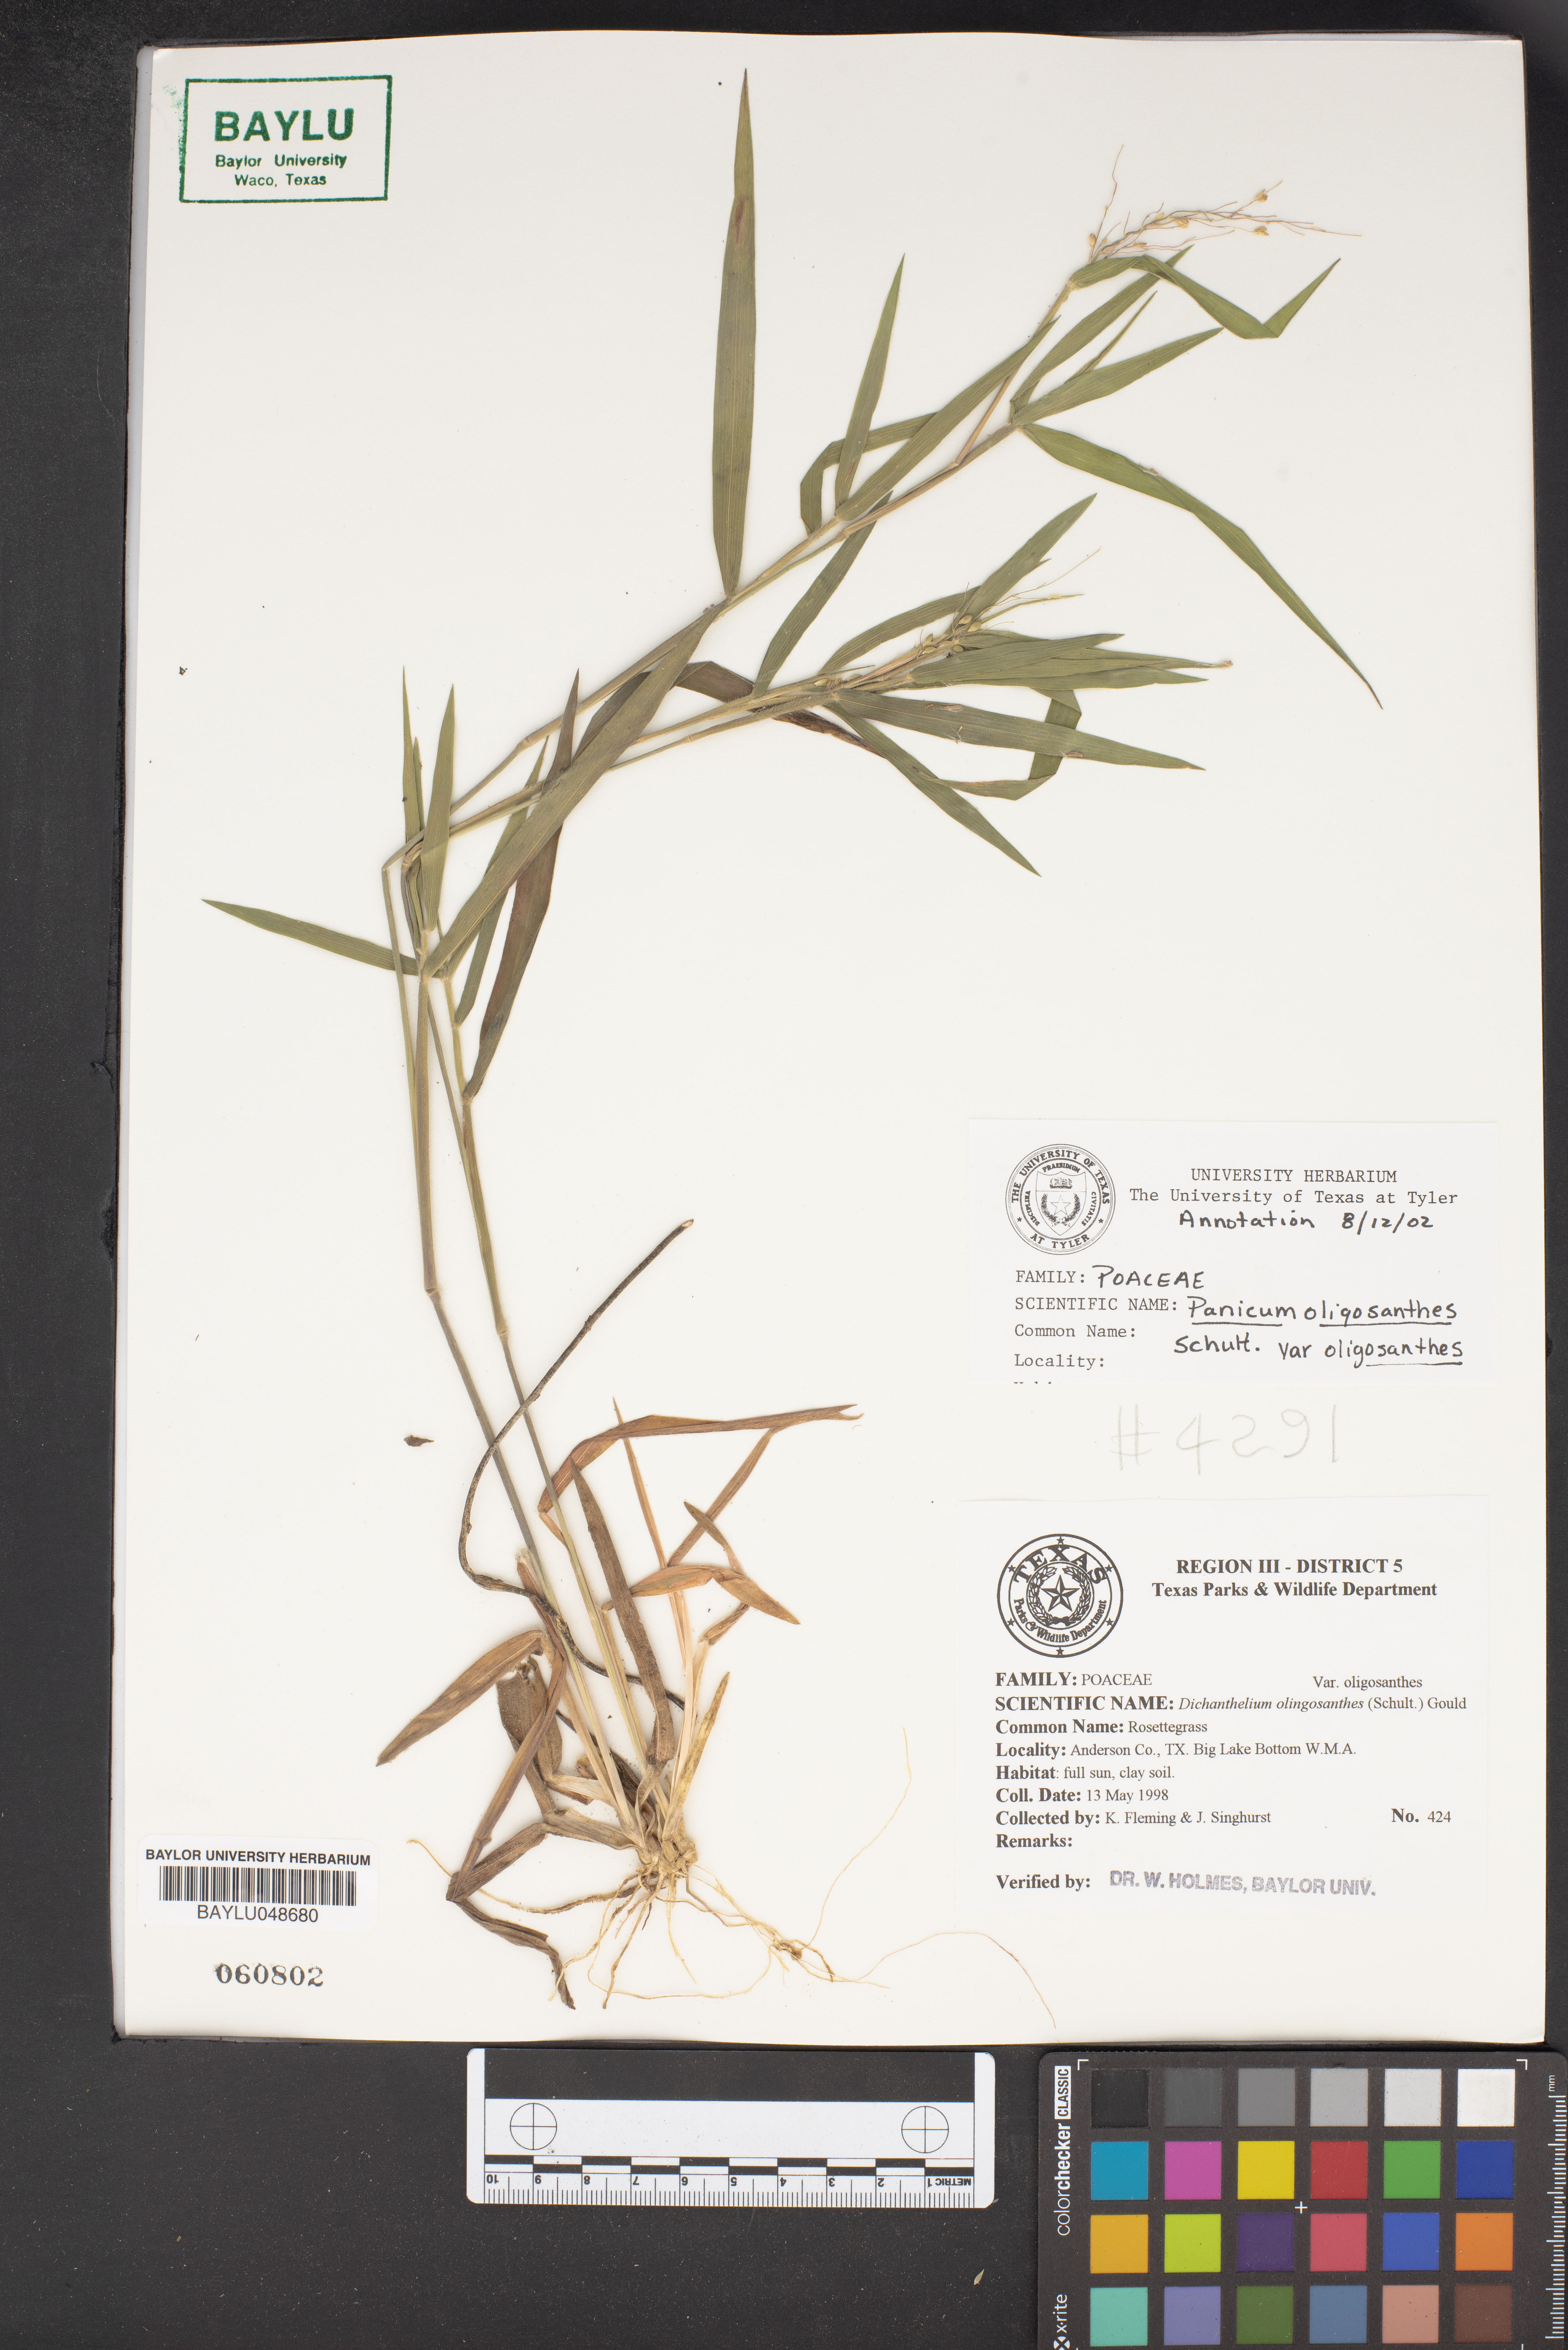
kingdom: Plantae
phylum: Tracheophyta
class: Liliopsida
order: Poales
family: Poaceae
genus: Dichanthelium
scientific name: Dichanthelium oligosanthes
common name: Few-anther obscuregrass
